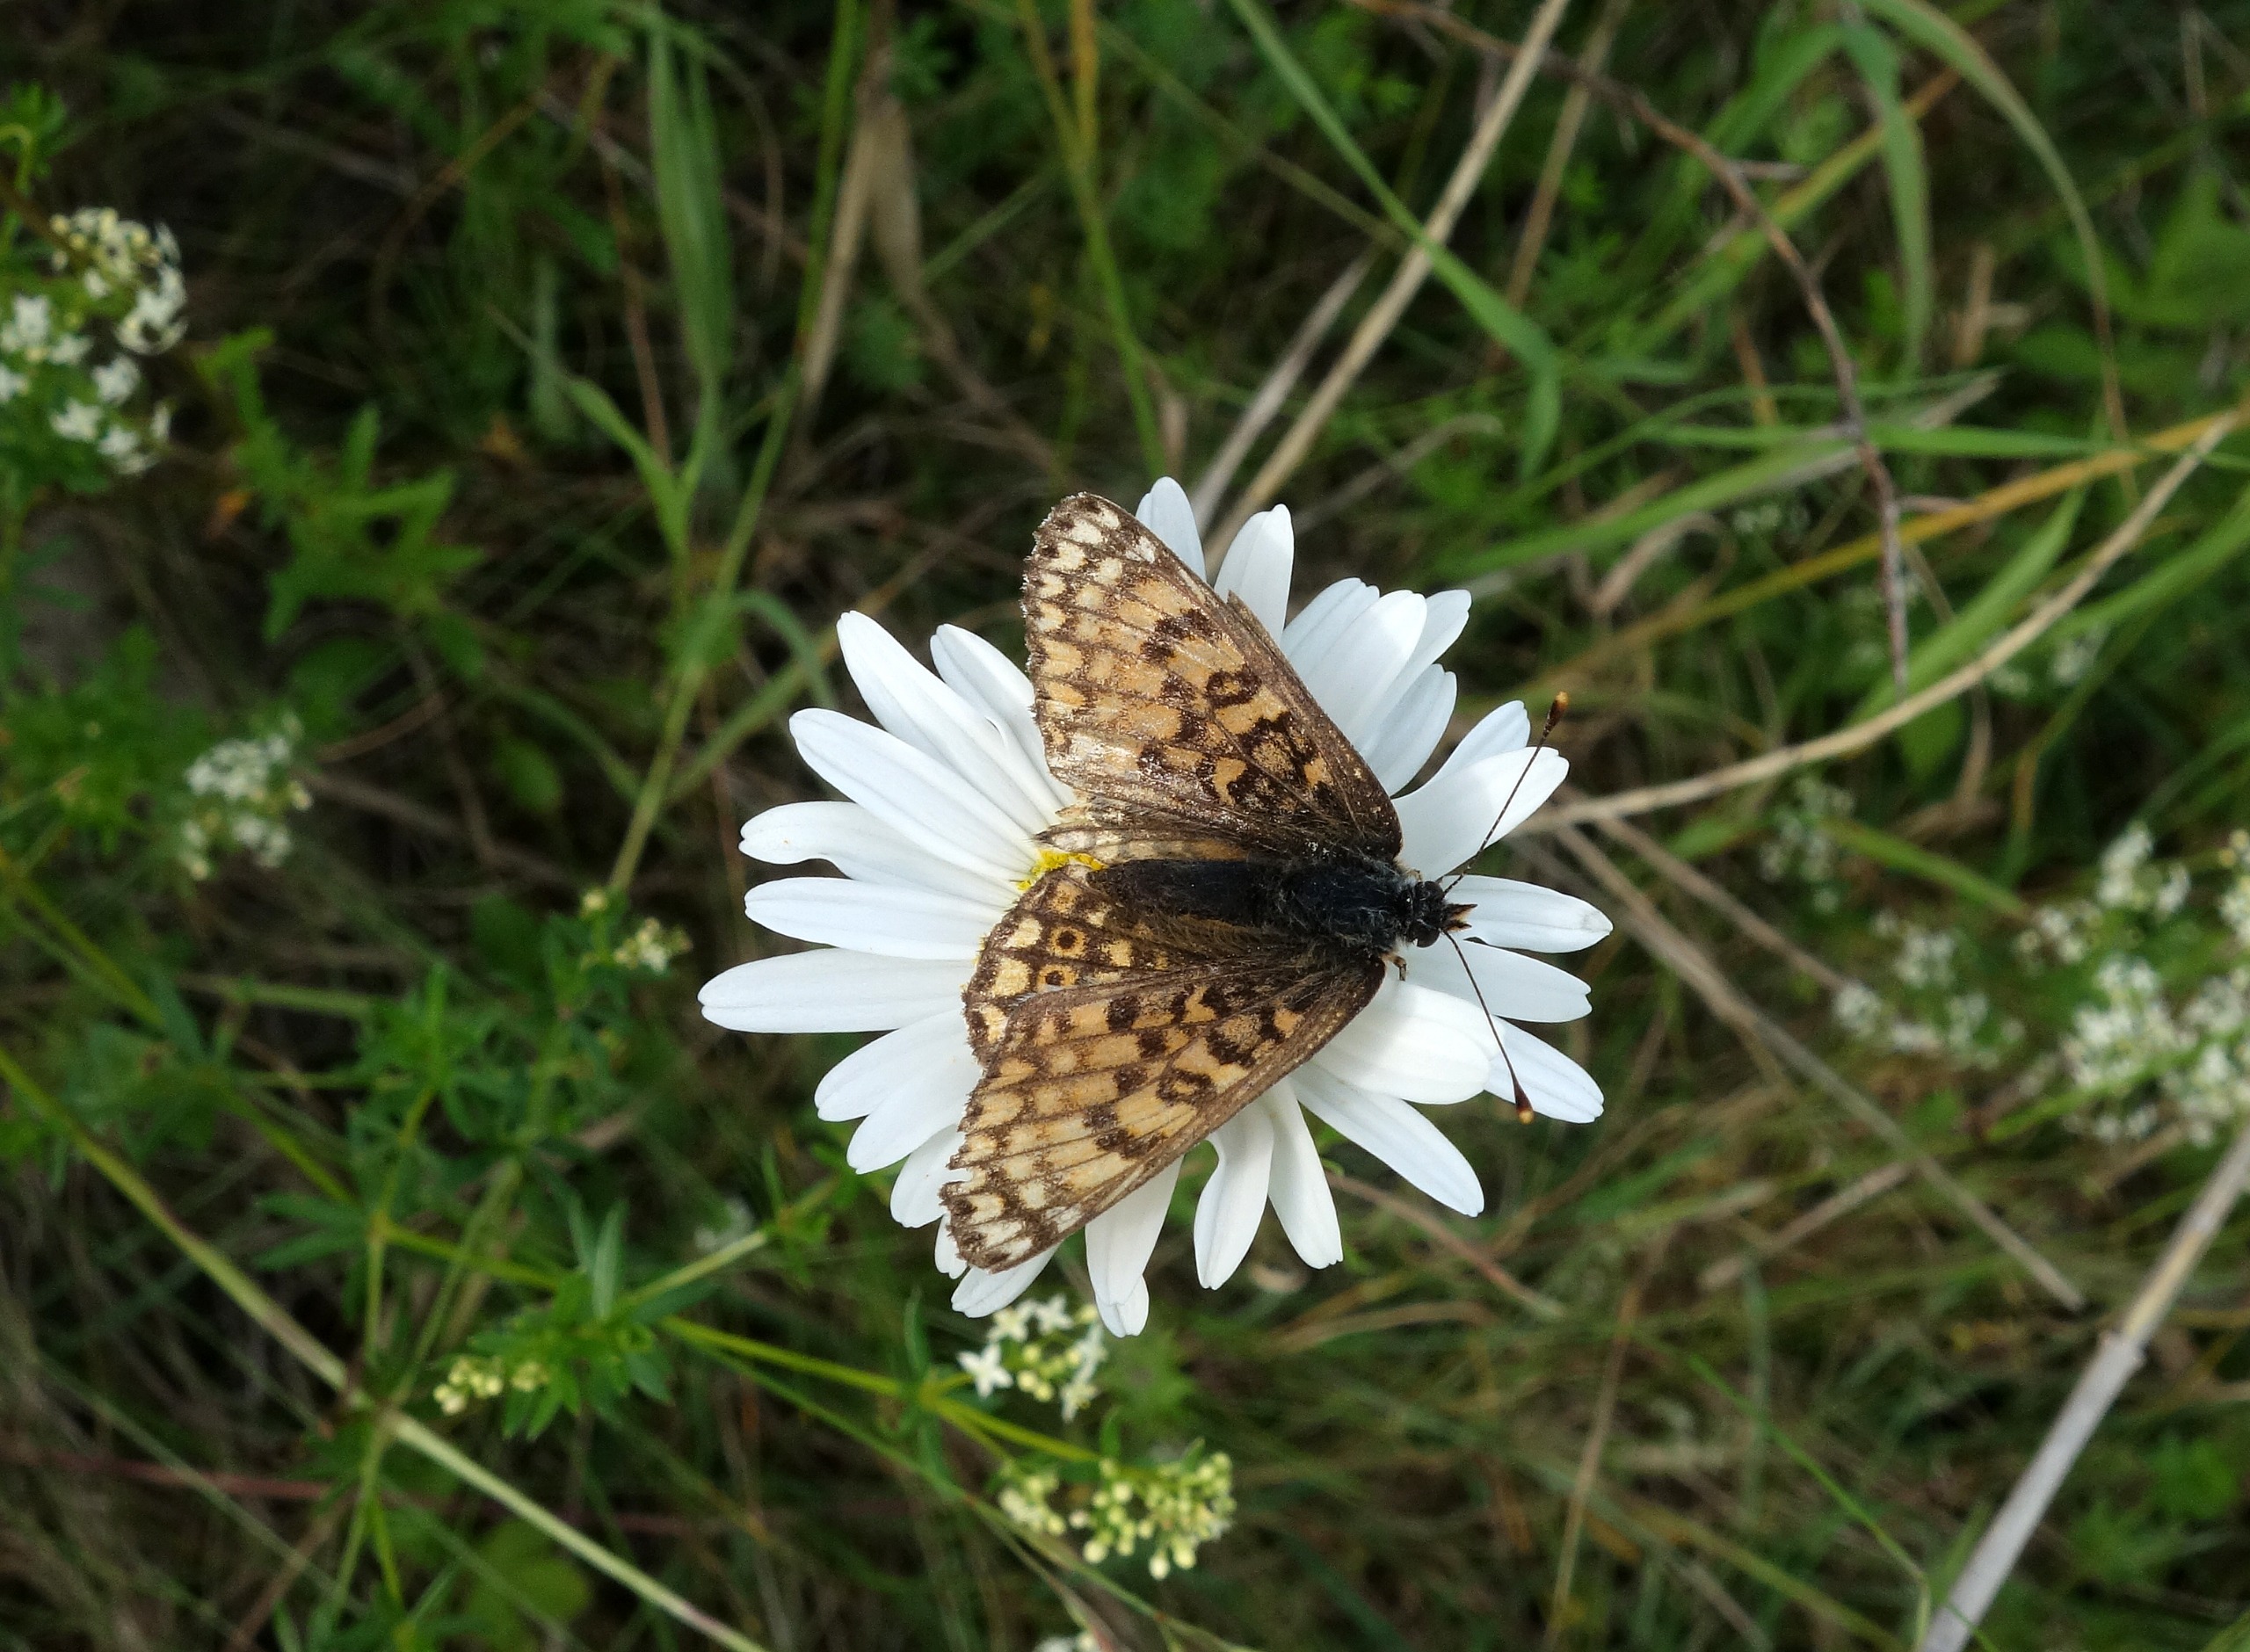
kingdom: Animalia
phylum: Arthropoda
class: Insecta
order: Lepidoptera
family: Nymphalidae
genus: Melitaea
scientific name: Melitaea cinxia
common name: Okkergul pletvinge
